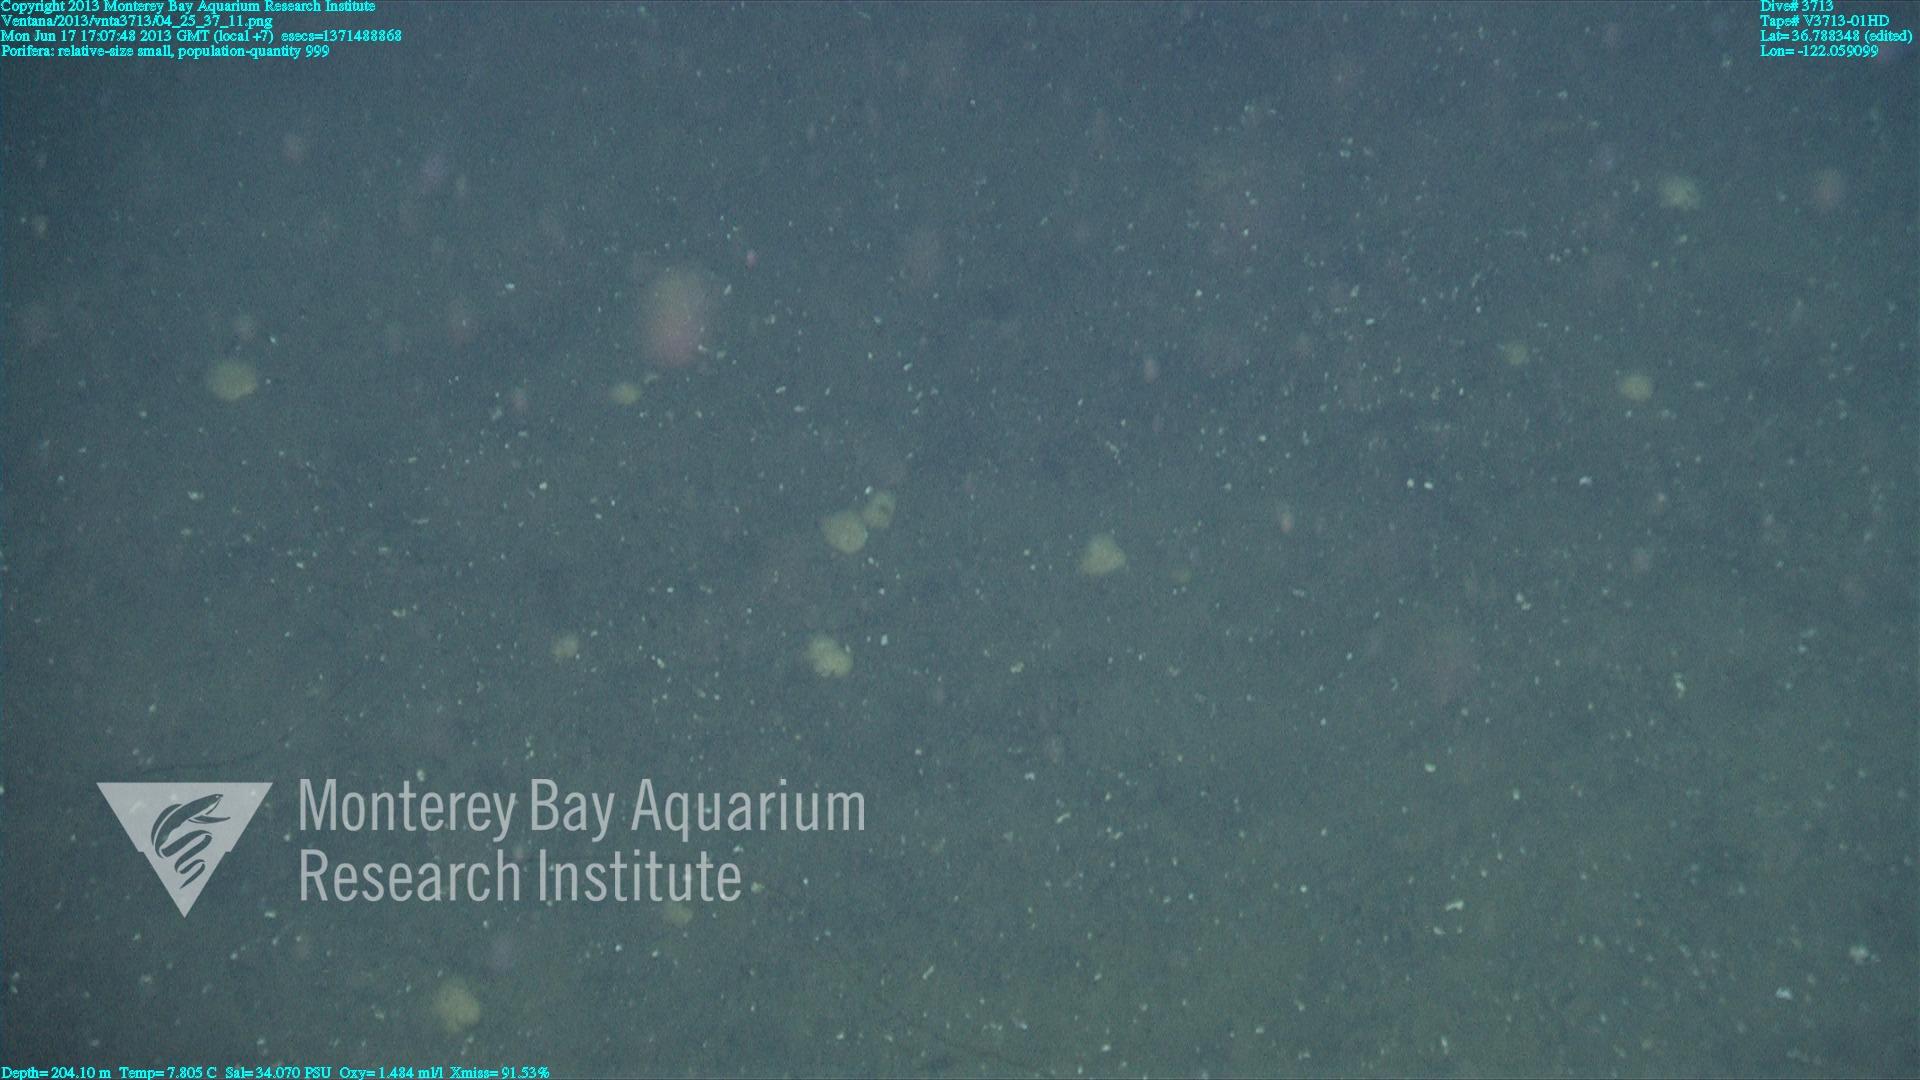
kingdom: Animalia
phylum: Porifera
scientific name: Porifera
